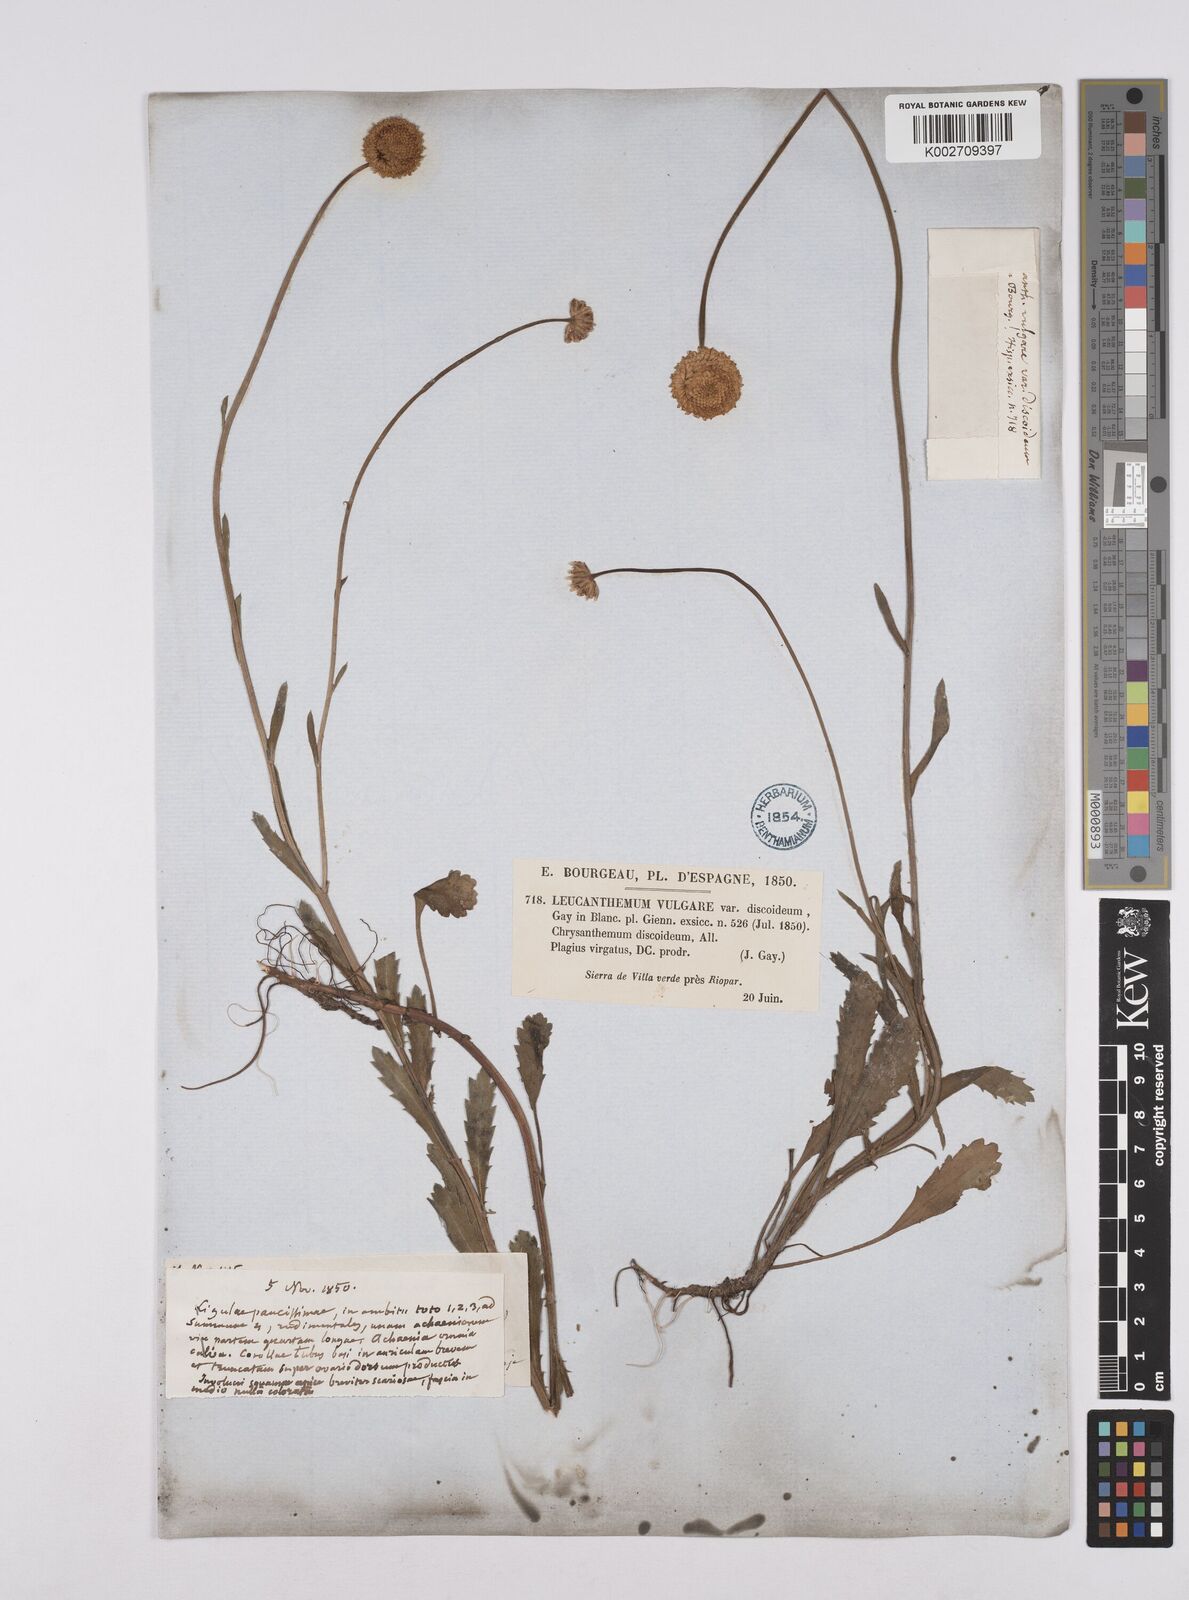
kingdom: Plantae
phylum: Tracheophyta
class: Magnoliopsida
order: Asterales
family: Asteraceae
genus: Leucanthemum
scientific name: Leucanthemum vulgare
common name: Oxeye daisy
